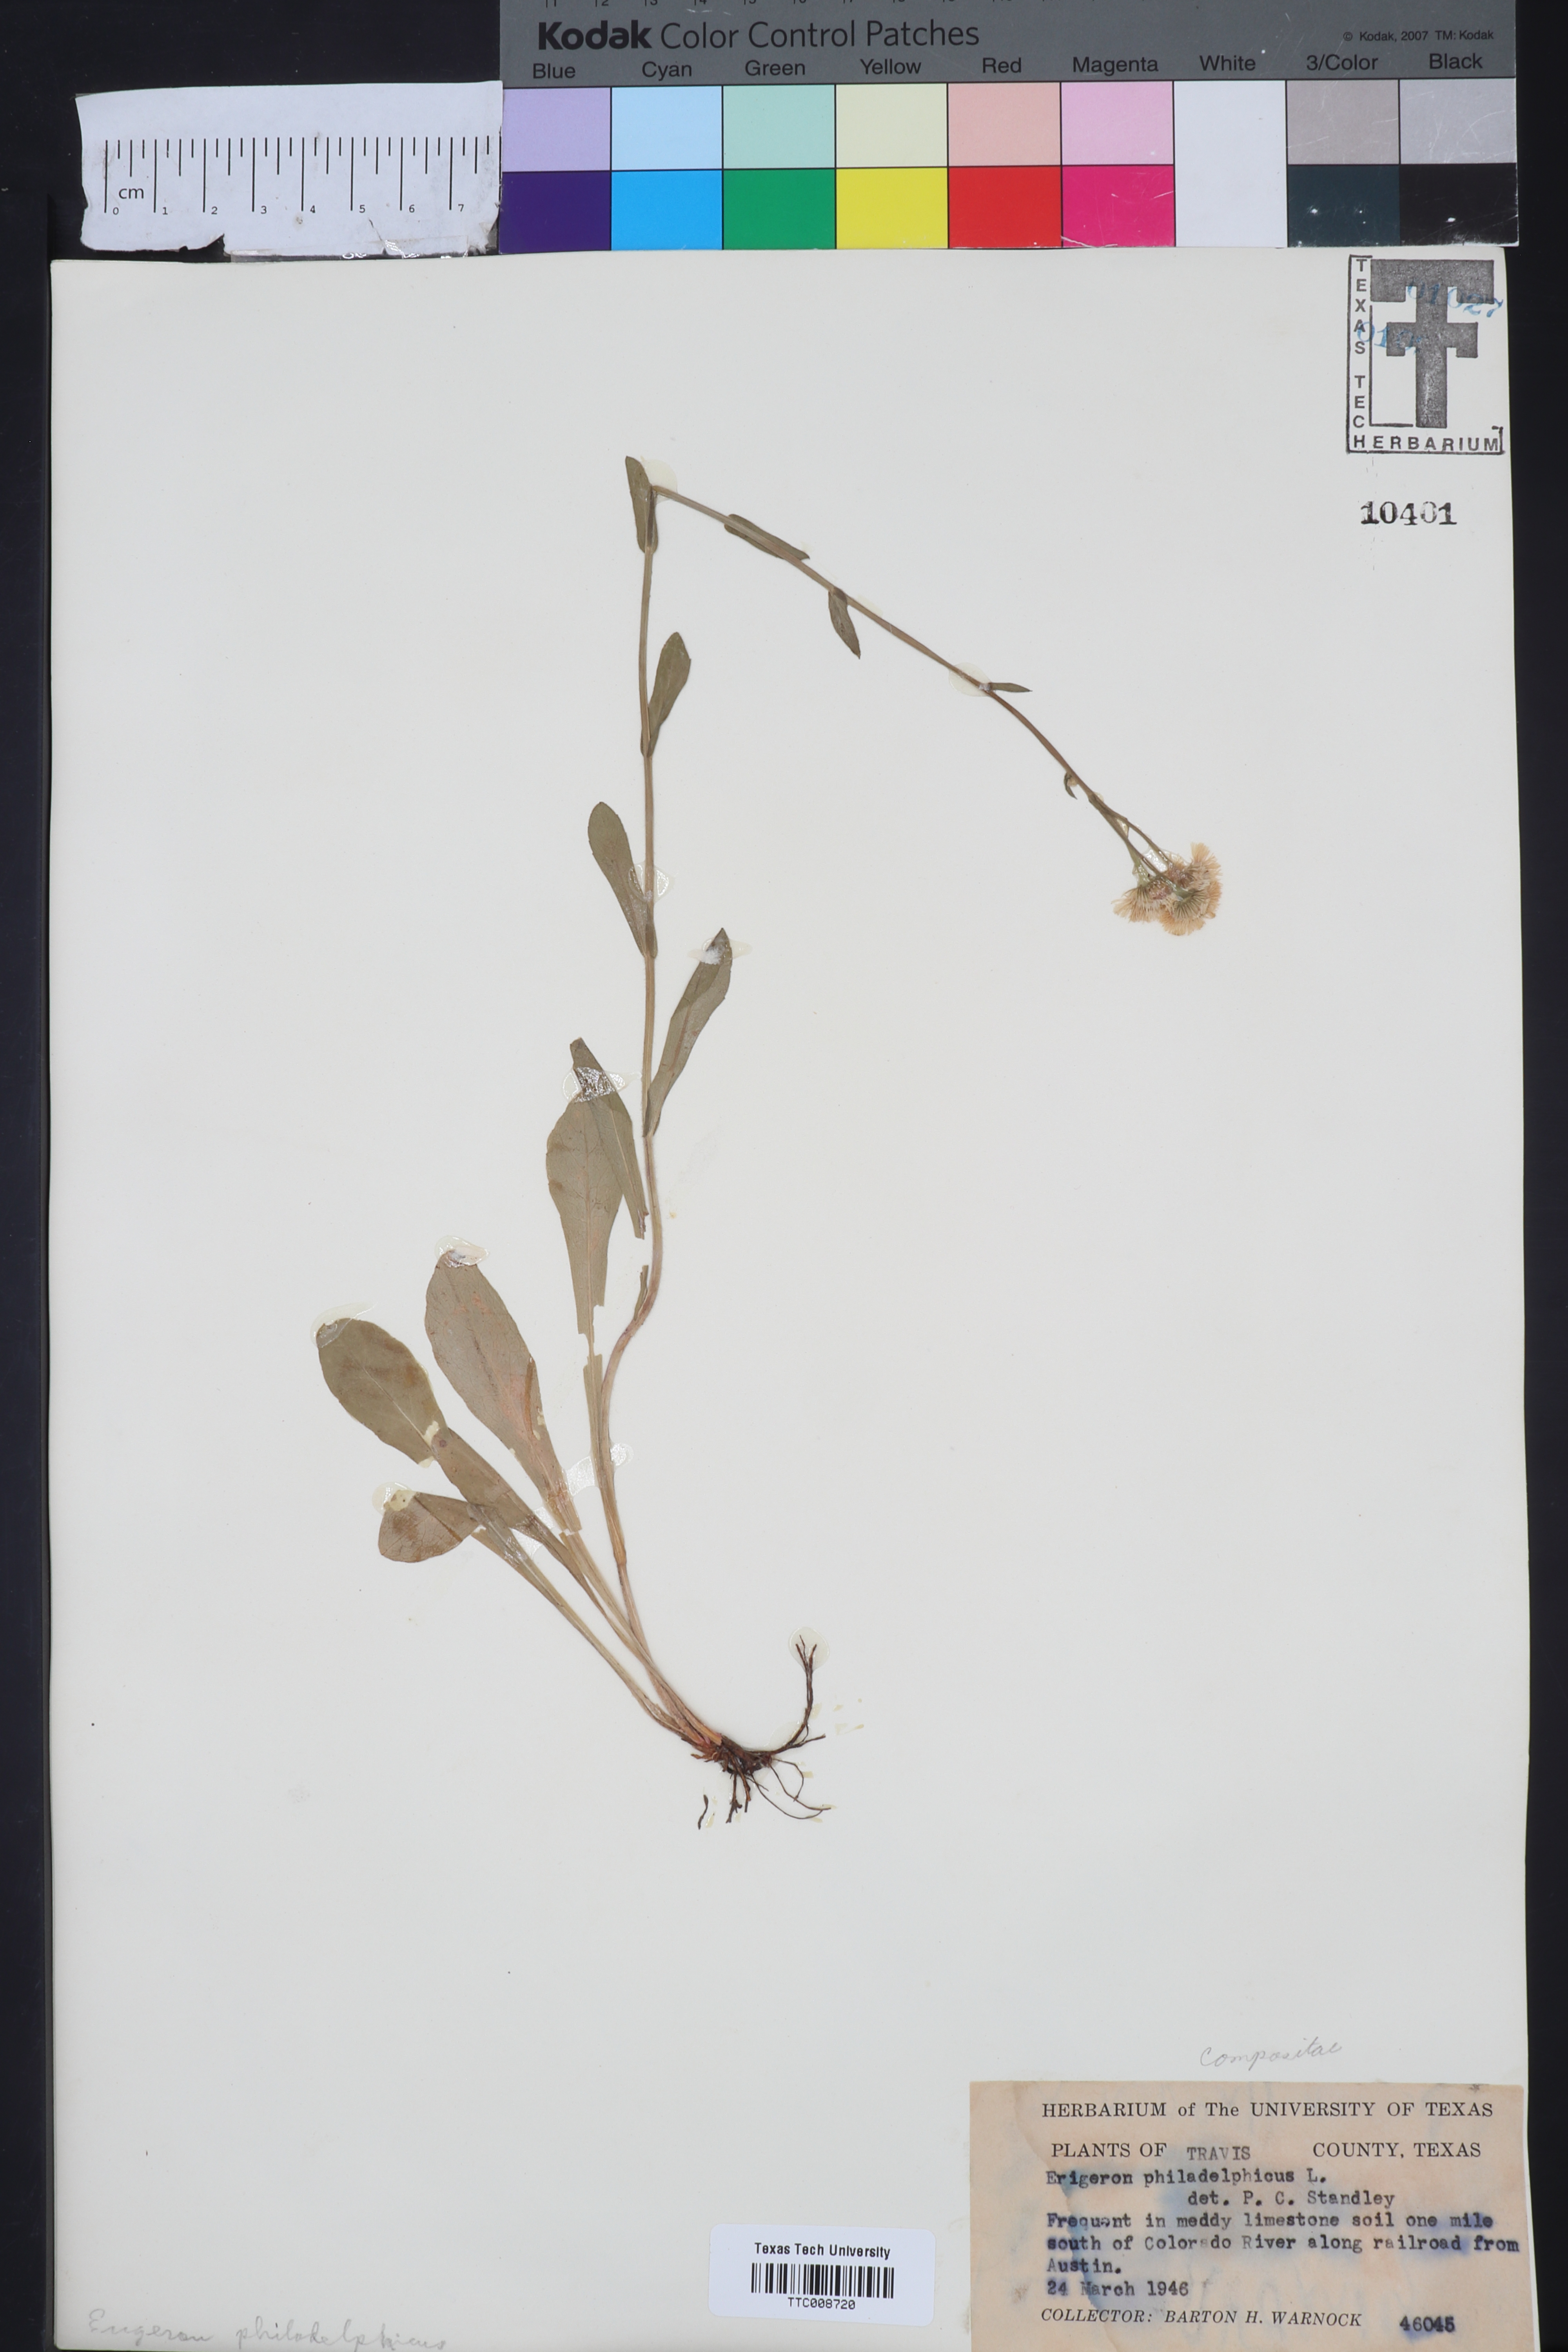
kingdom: Plantae
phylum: Tracheophyta
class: Magnoliopsida
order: Asterales
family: Asteraceae
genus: Erigeron
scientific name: Erigeron philadelphicus
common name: Robin's-plantain
